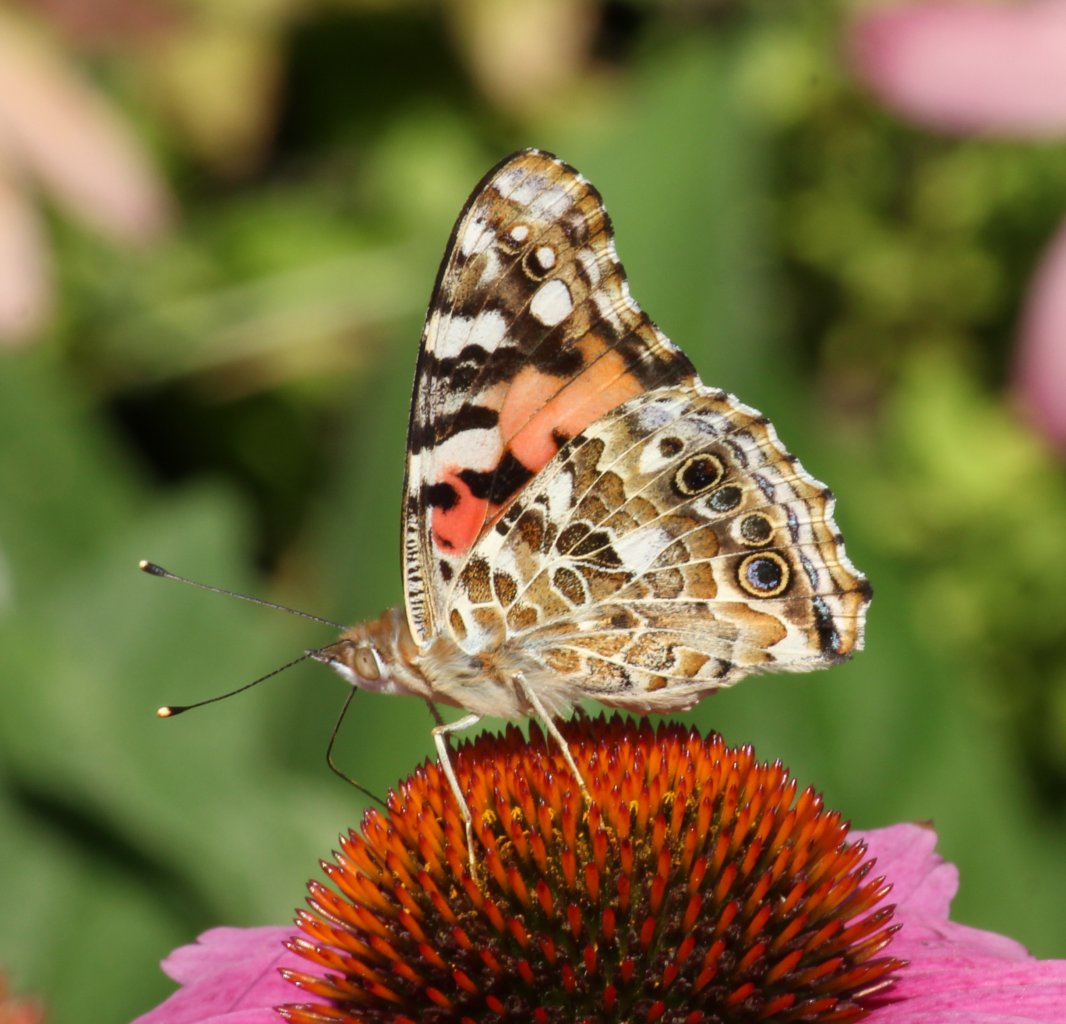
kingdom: Animalia
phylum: Arthropoda
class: Insecta
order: Lepidoptera
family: Nymphalidae
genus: Vanessa
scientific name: Vanessa cardui
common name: Painted Lady
